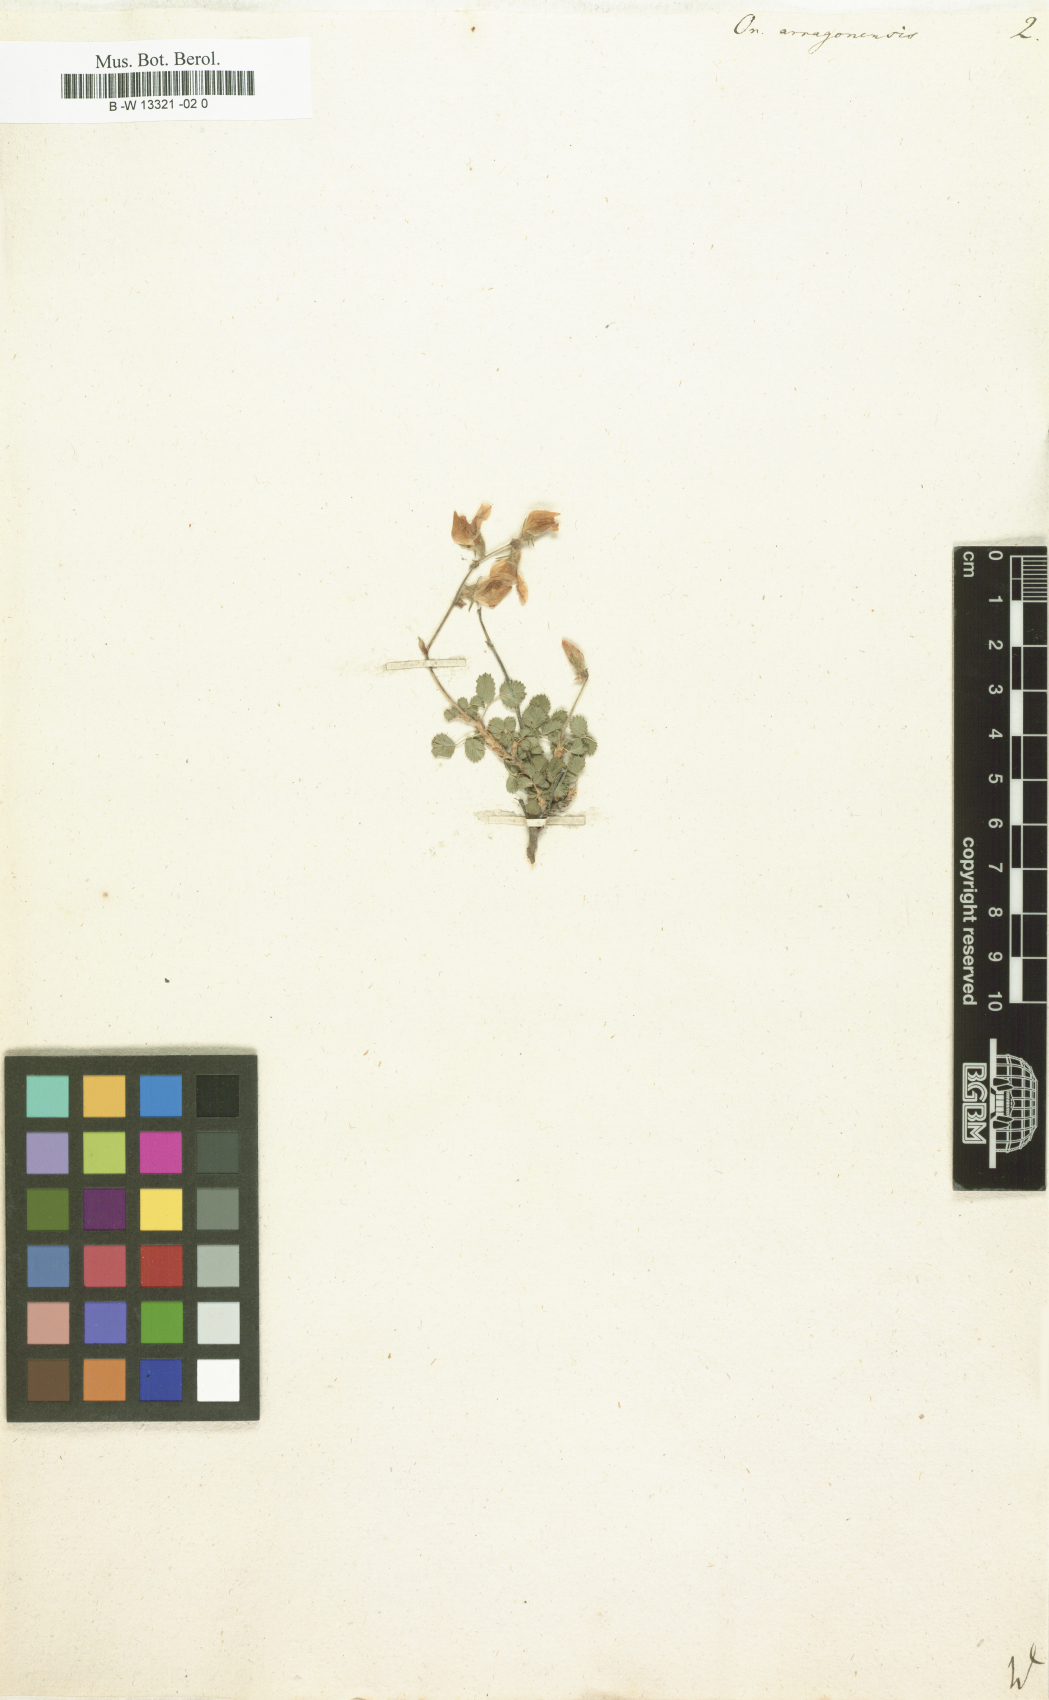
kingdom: Plantae
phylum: Tracheophyta
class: Magnoliopsida
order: Fabales
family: Fabaceae
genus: Ononis
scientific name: Ononis aragonensis
